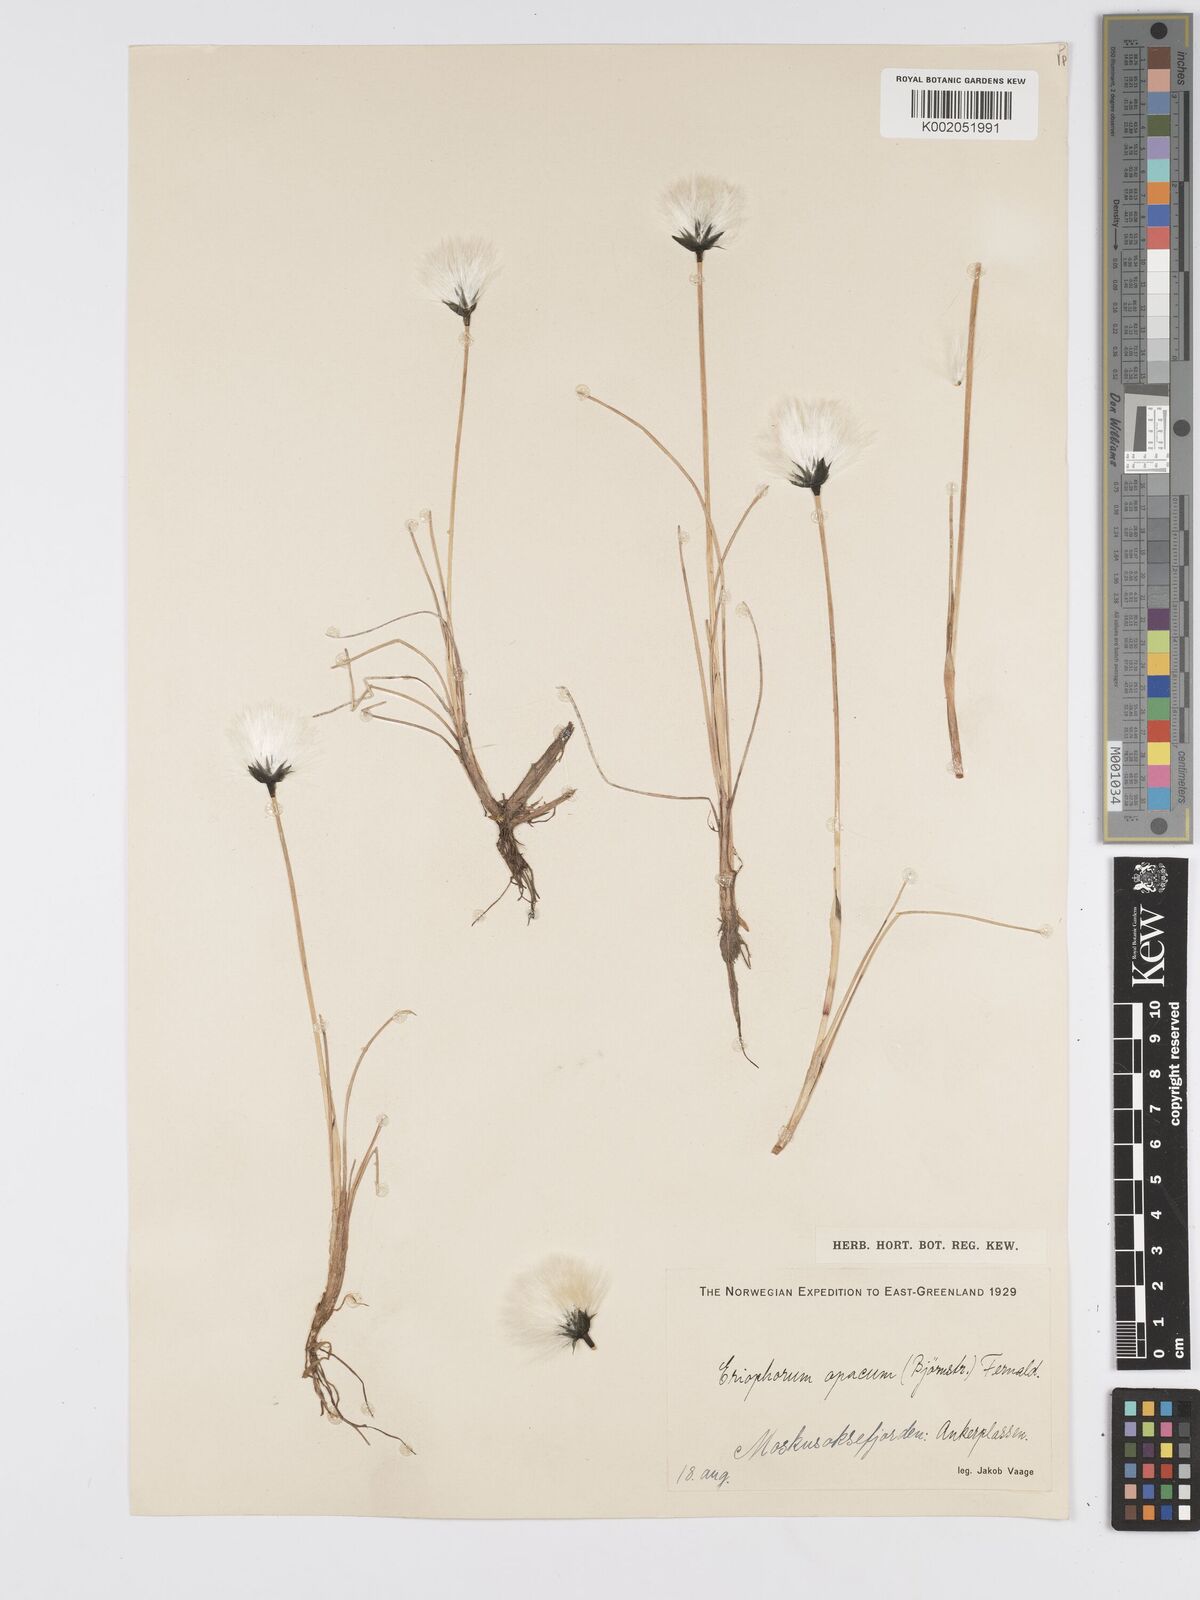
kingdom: Plantae
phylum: Tracheophyta
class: Liliopsida
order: Poales
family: Cyperaceae
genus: Eriophorum
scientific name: Eriophorum brachyantherum
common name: Closed-sheathed cottongrass
